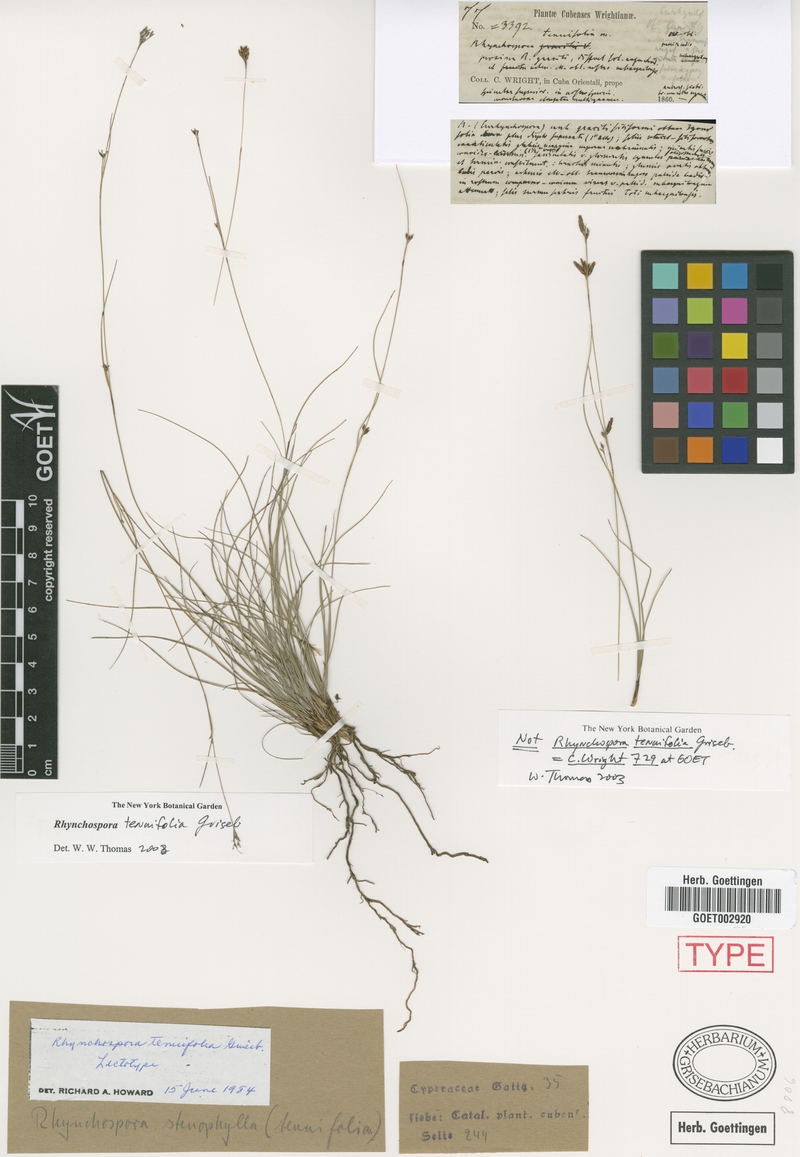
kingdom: Plantae
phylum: Tracheophyta
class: Liliopsida
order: Poales
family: Cyperaceae
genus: Rhynchospora
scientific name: Rhynchospora tenuifolia
